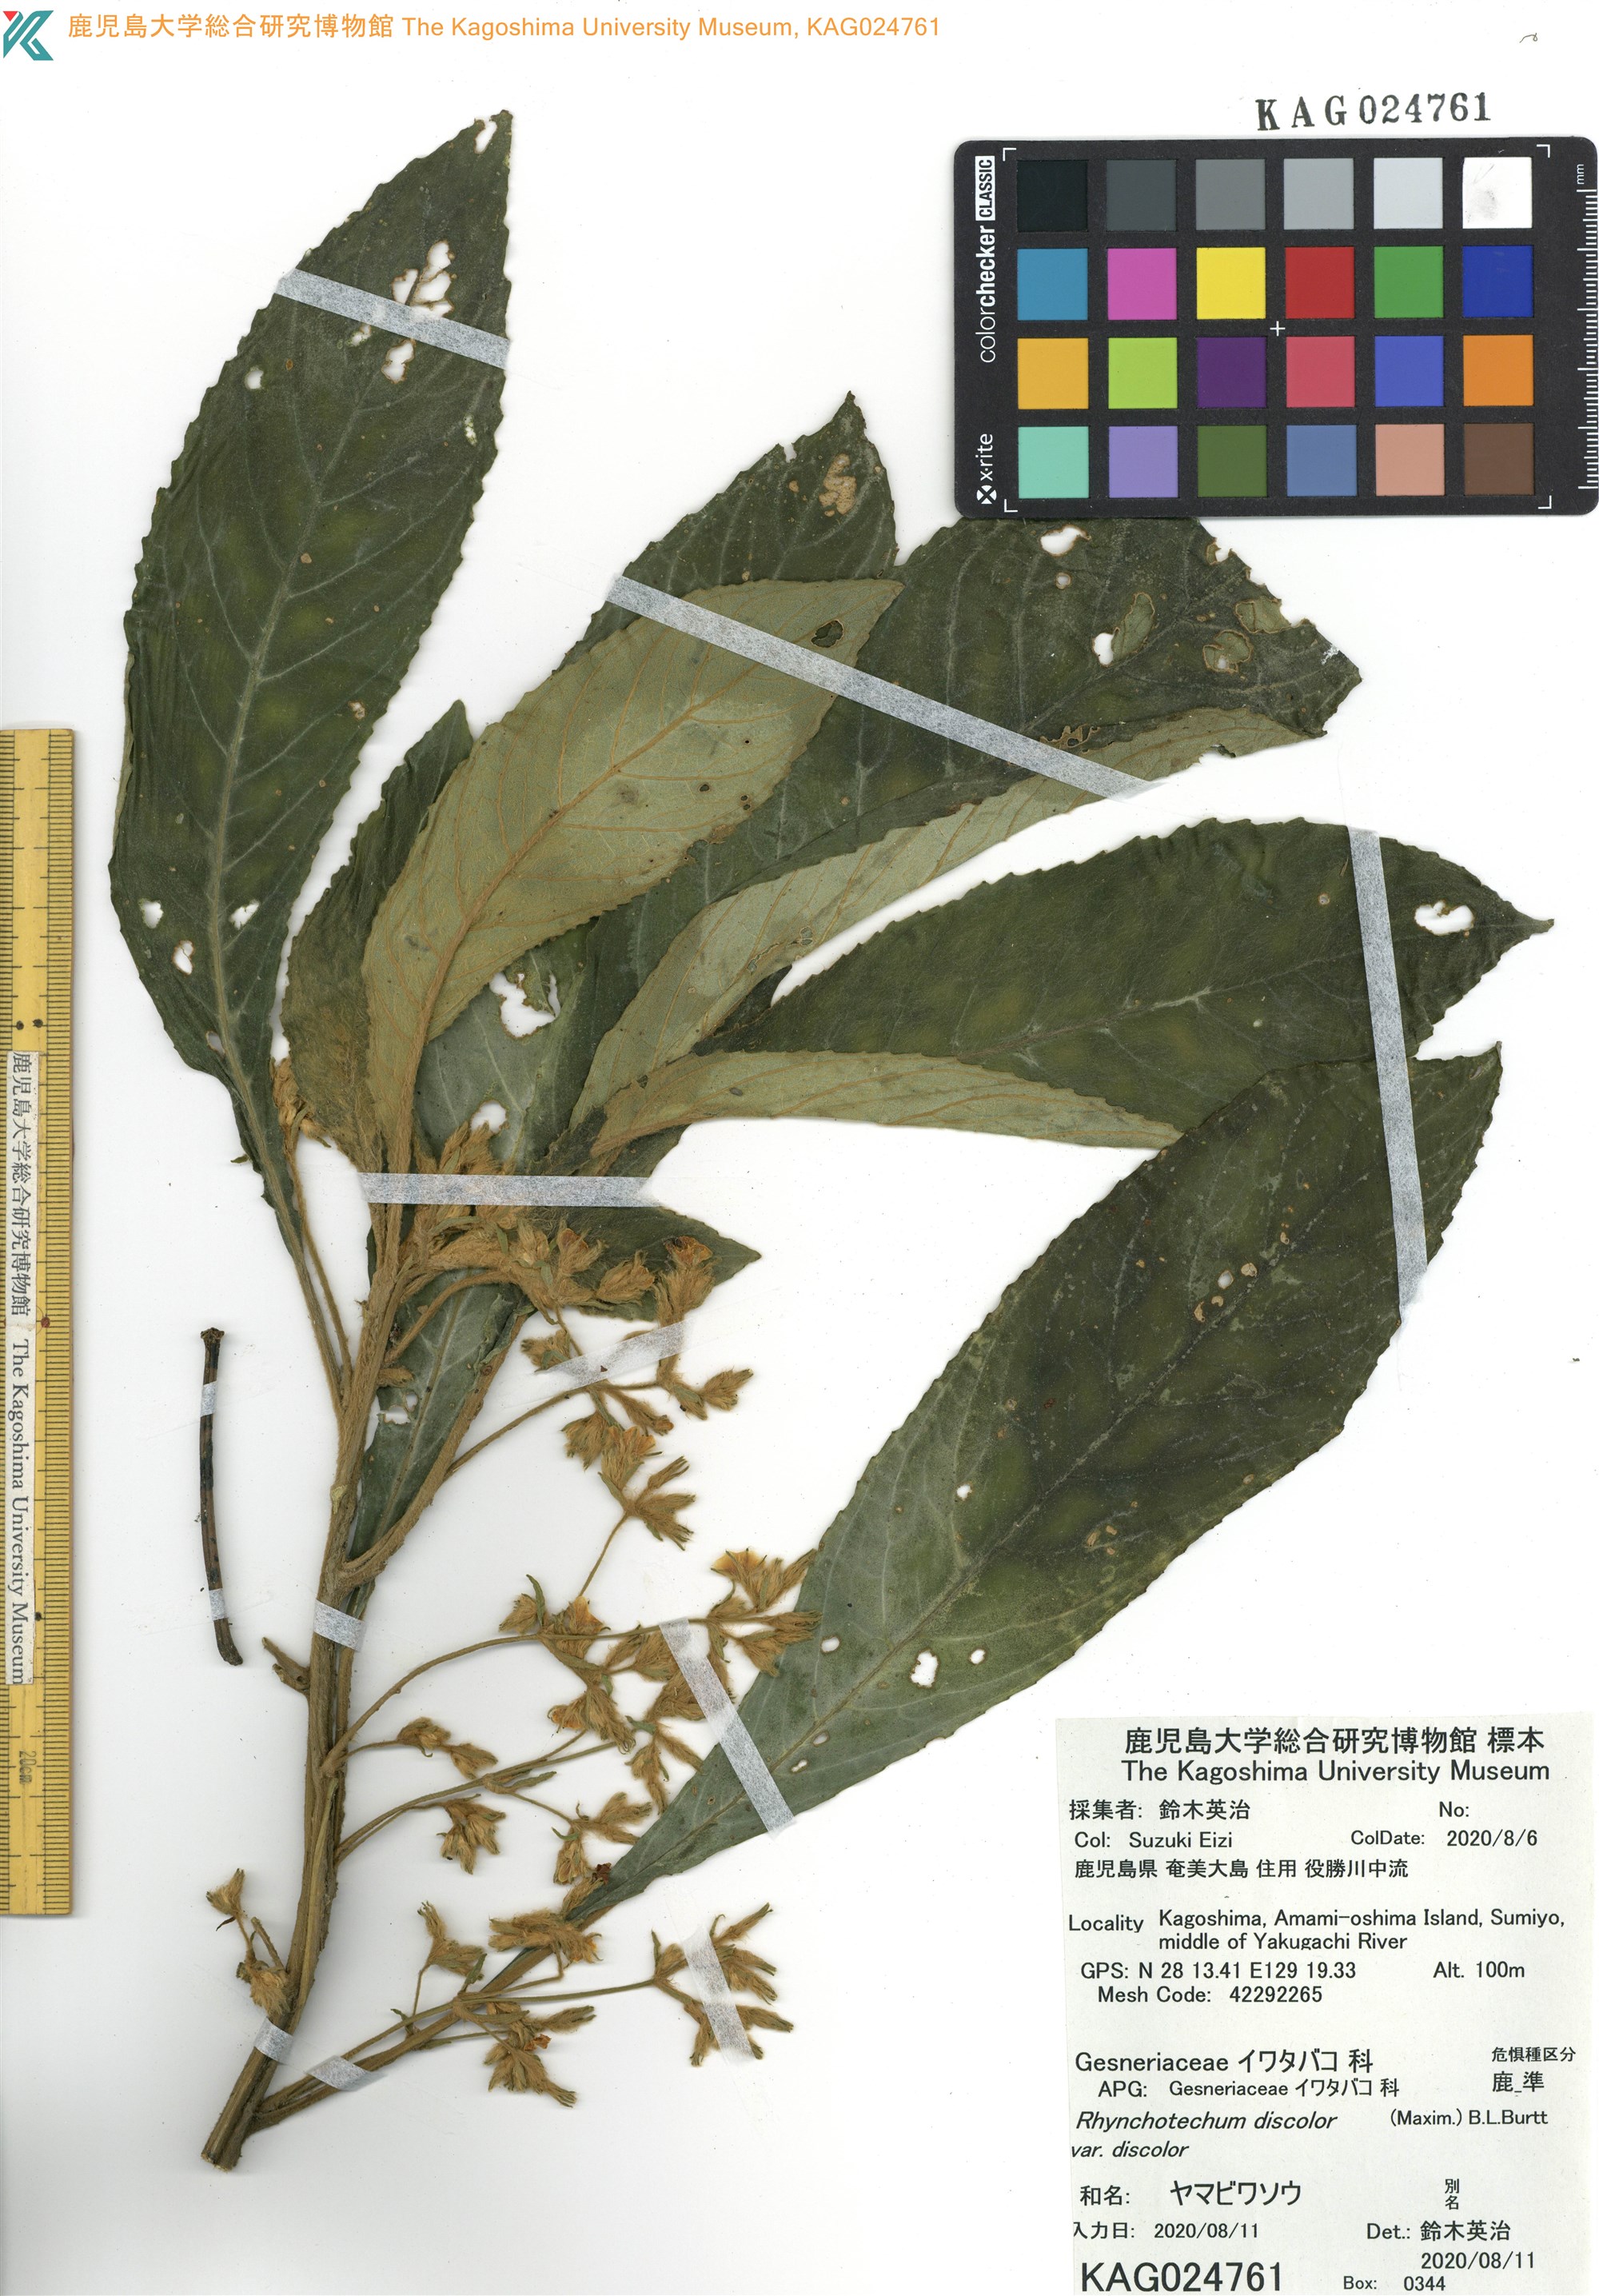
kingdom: Plantae
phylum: Tracheophyta
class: Magnoliopsida
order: Lamiales
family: Gesneriaceae
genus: Rhynchotechum
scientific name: Rhynchotechum discolor
